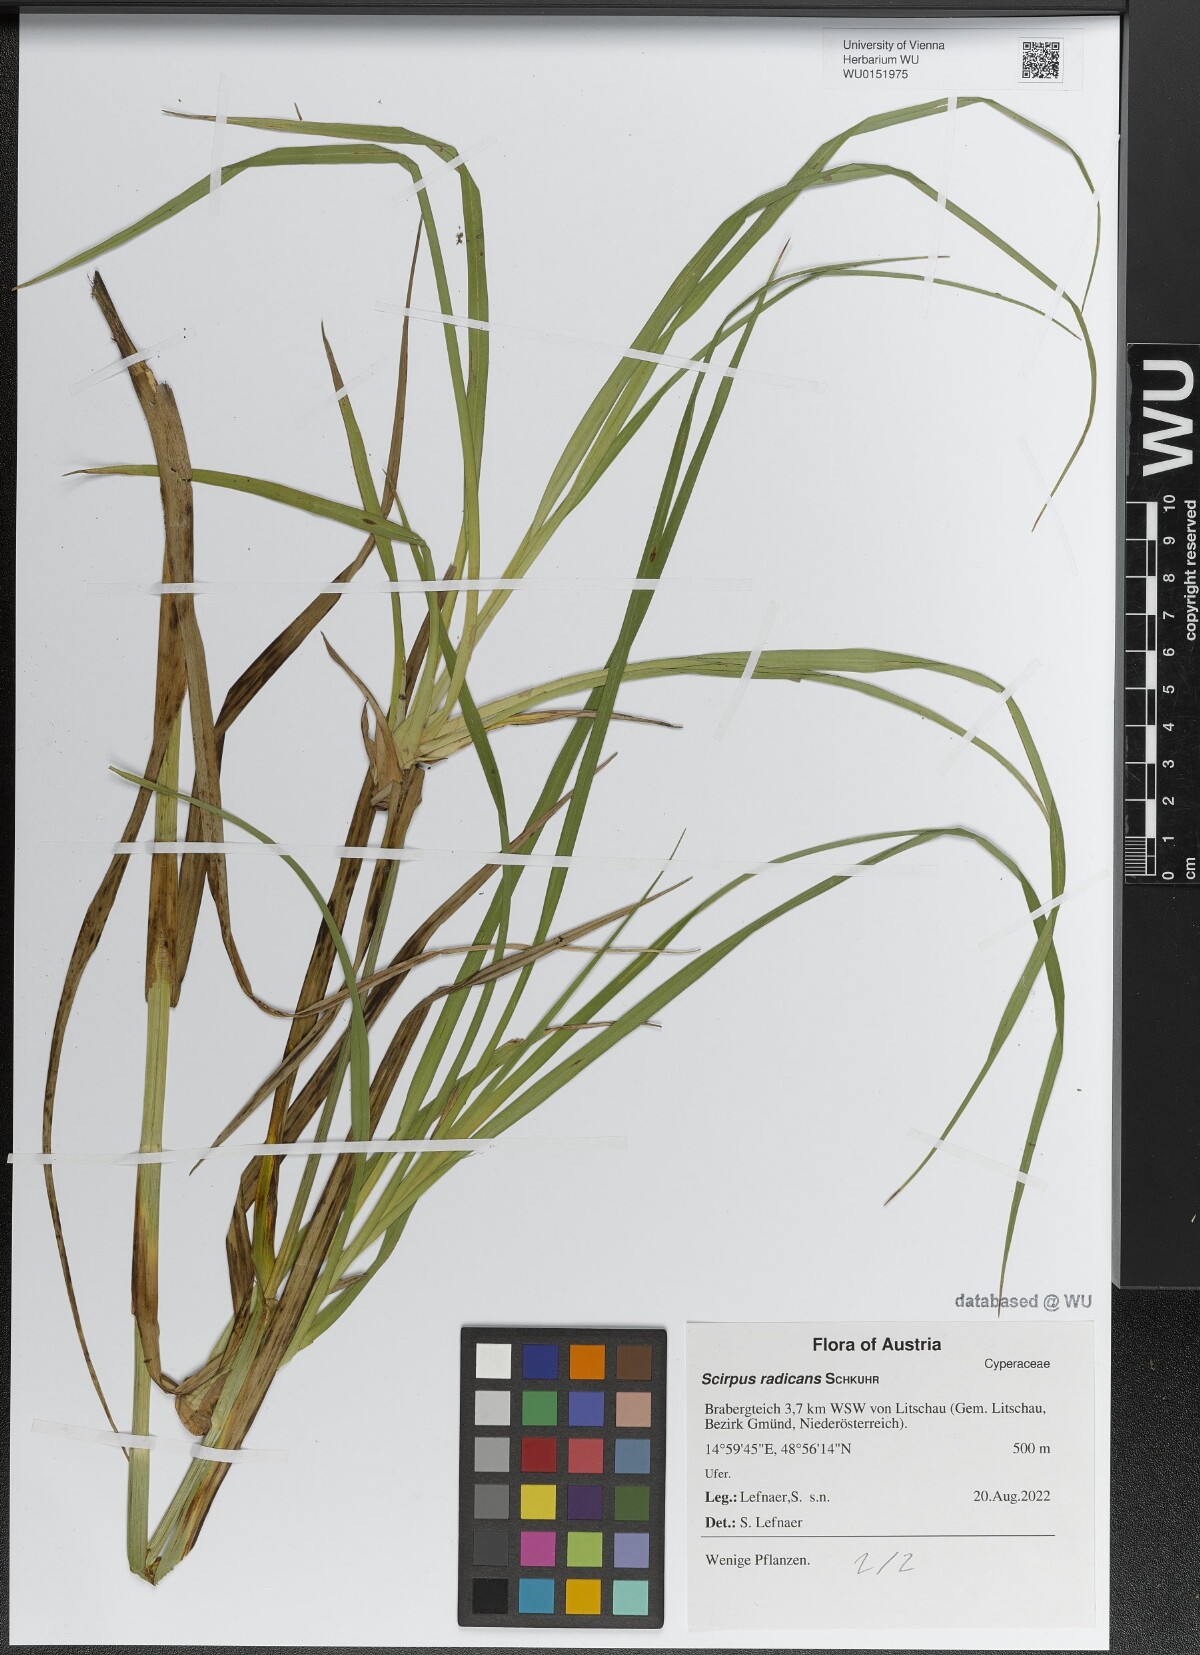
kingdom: Plantae
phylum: Tracheophyta
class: Liliopsida
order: Poales
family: Cyperaceae
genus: Scirpus
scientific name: Scirpus radicans
